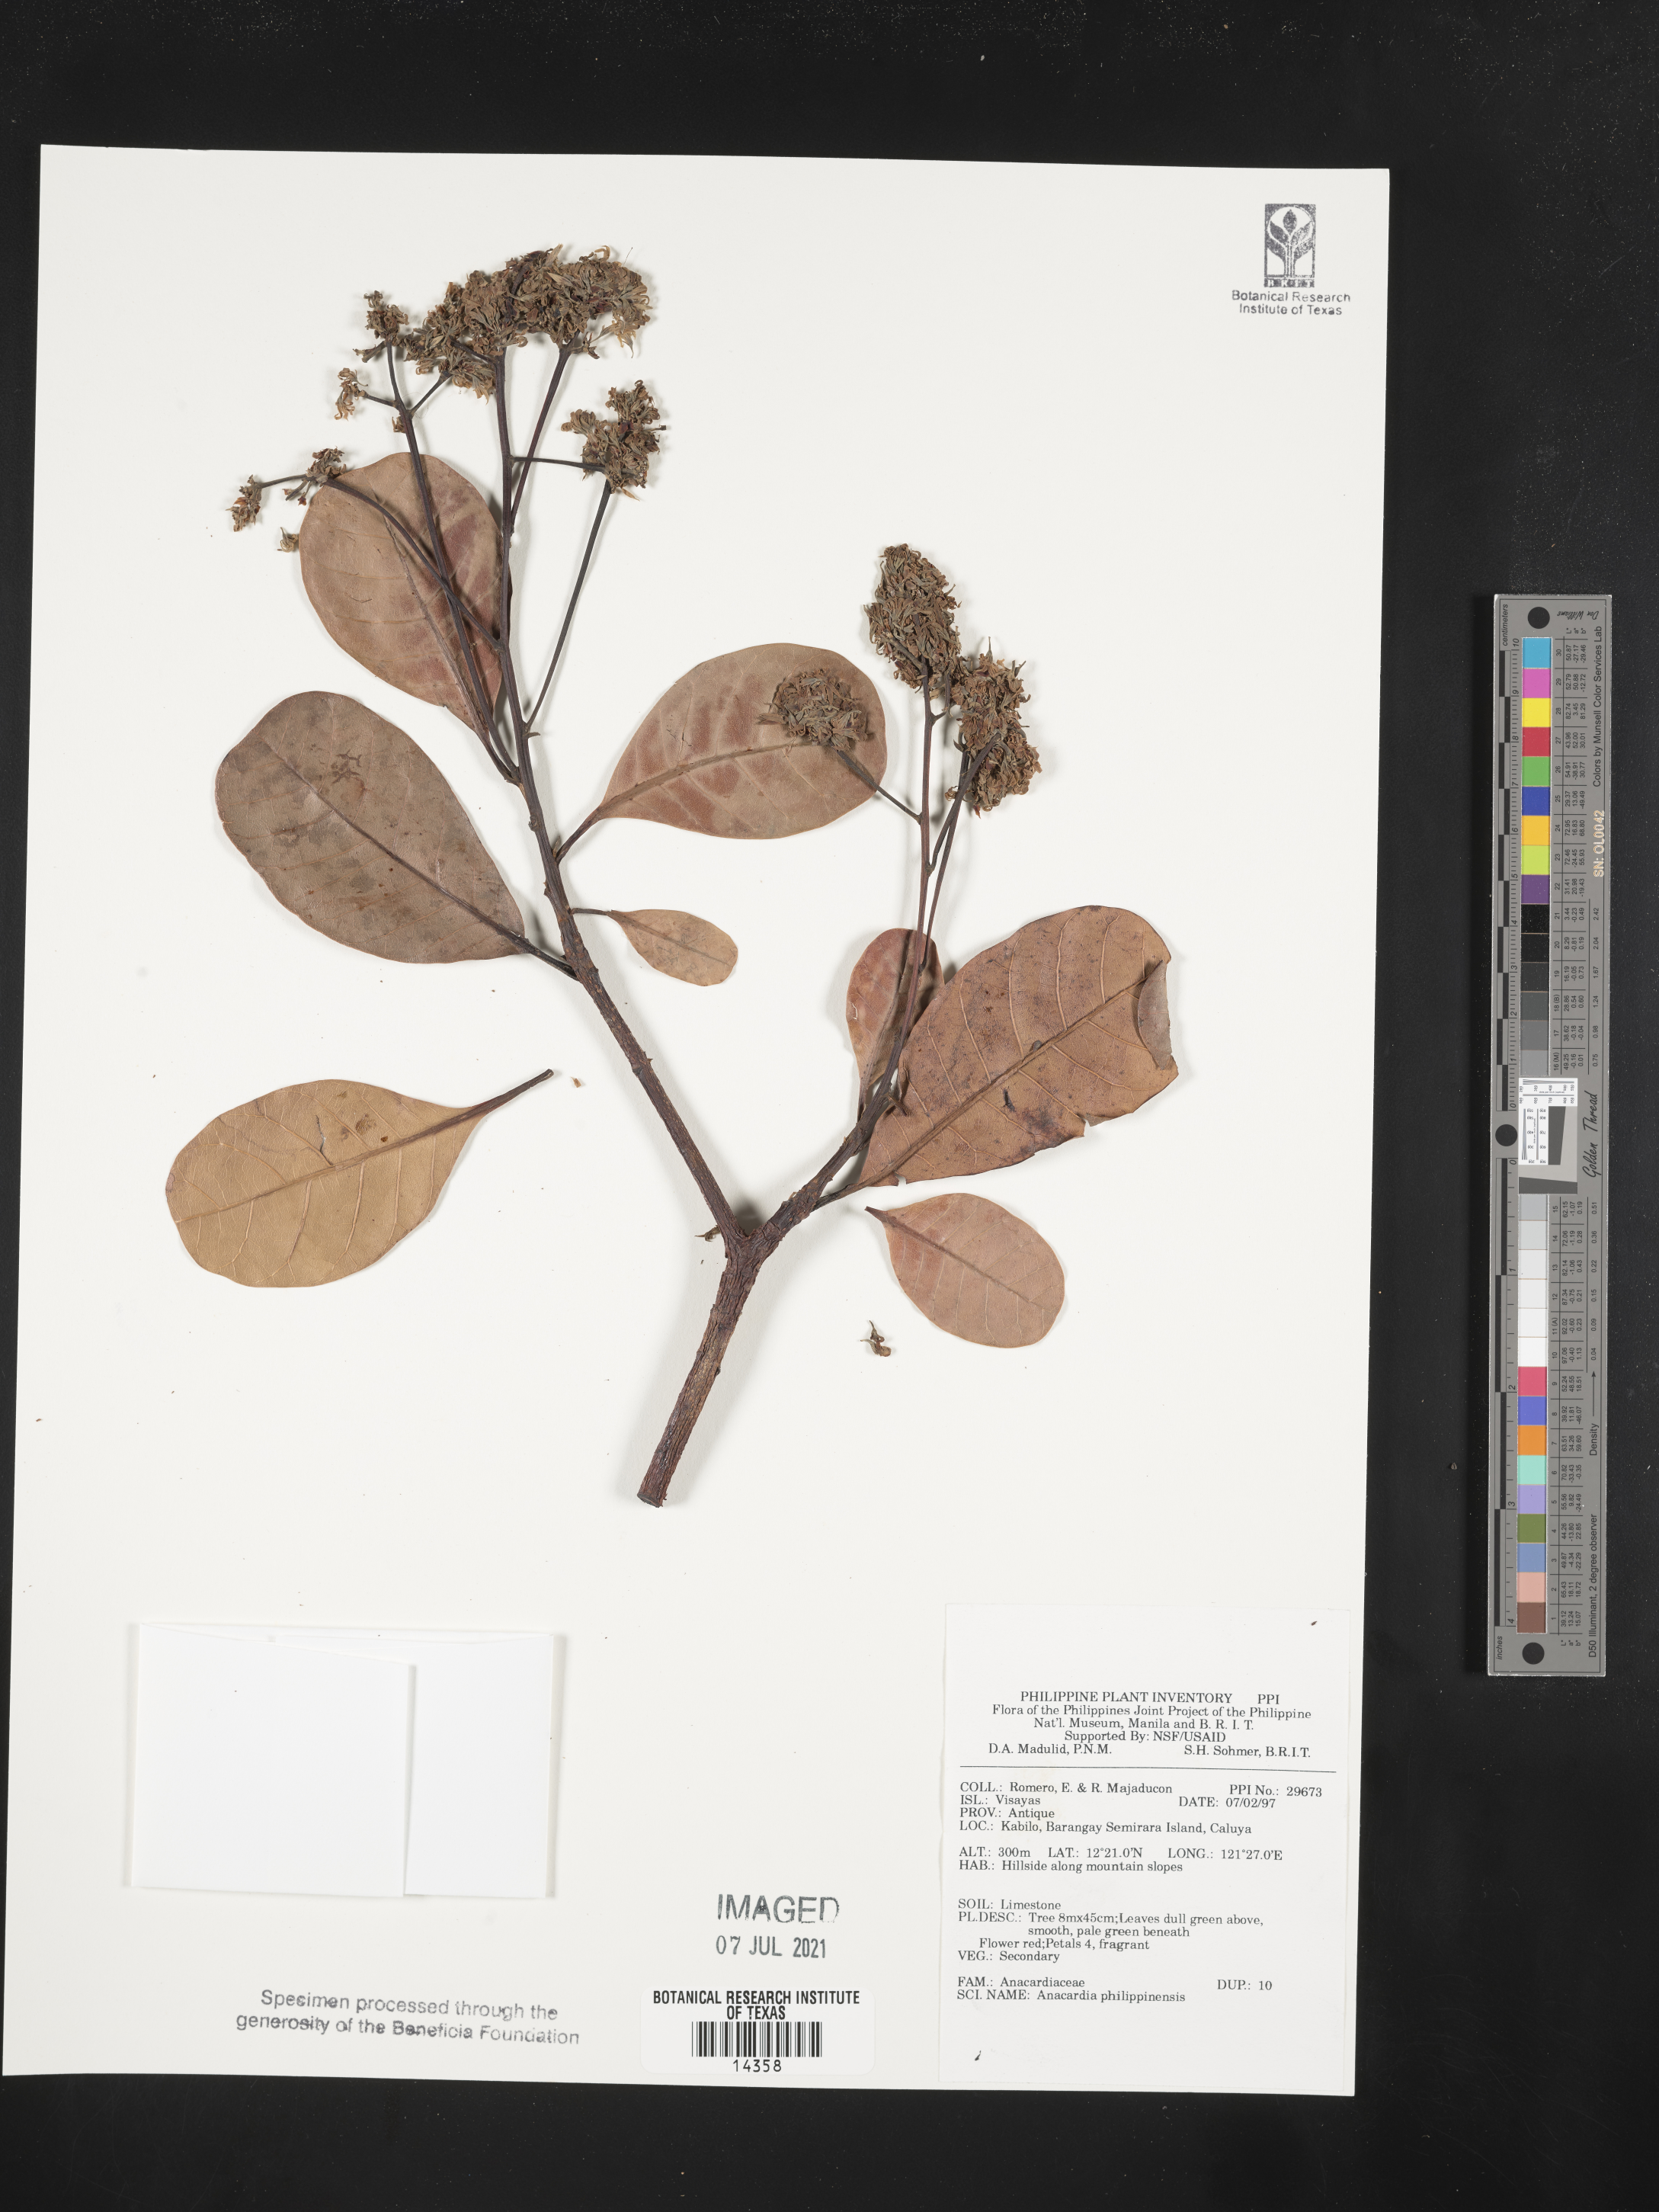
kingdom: Plantae
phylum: Tracheophyta
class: Magnoliopsida
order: Sapindales
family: Anacardiaceae
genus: Anacardium
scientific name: Anacardium
